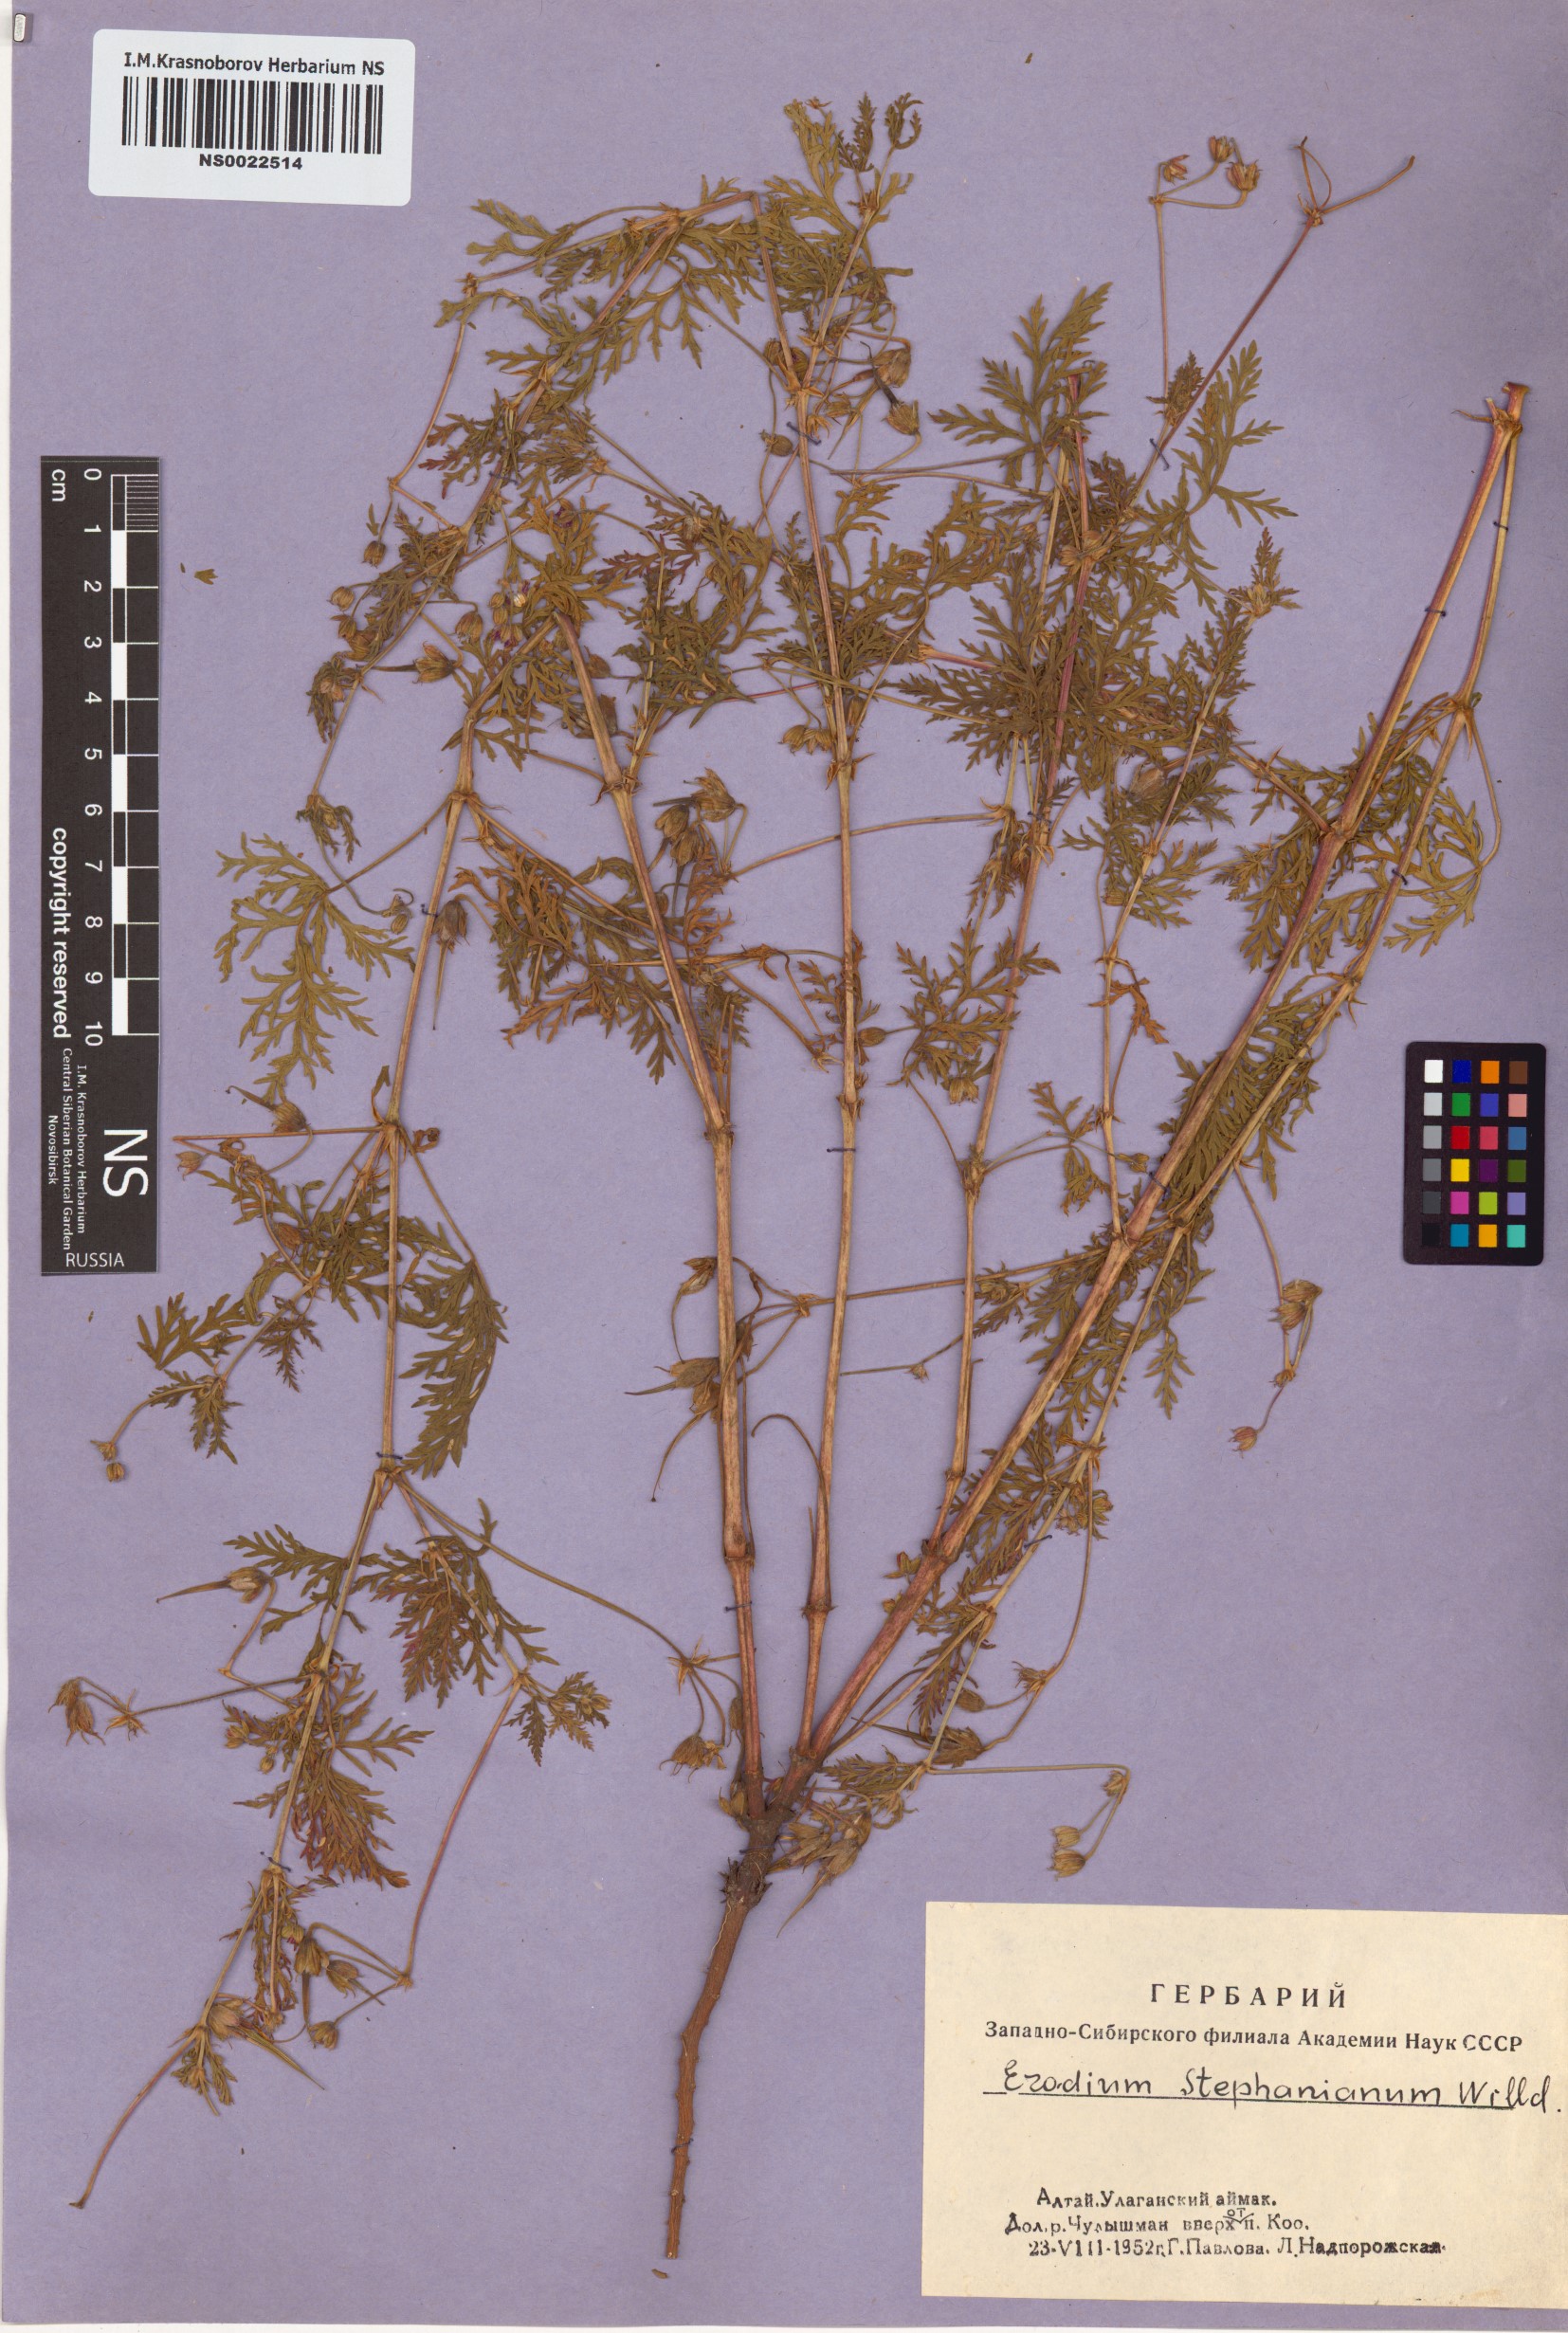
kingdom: Plantae
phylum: Tracheophyta
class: Magnoliopsida
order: Geraniales
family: Geraniaceae
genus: Erodium
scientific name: Erodium stephanianum
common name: Stephen's stork's bill
